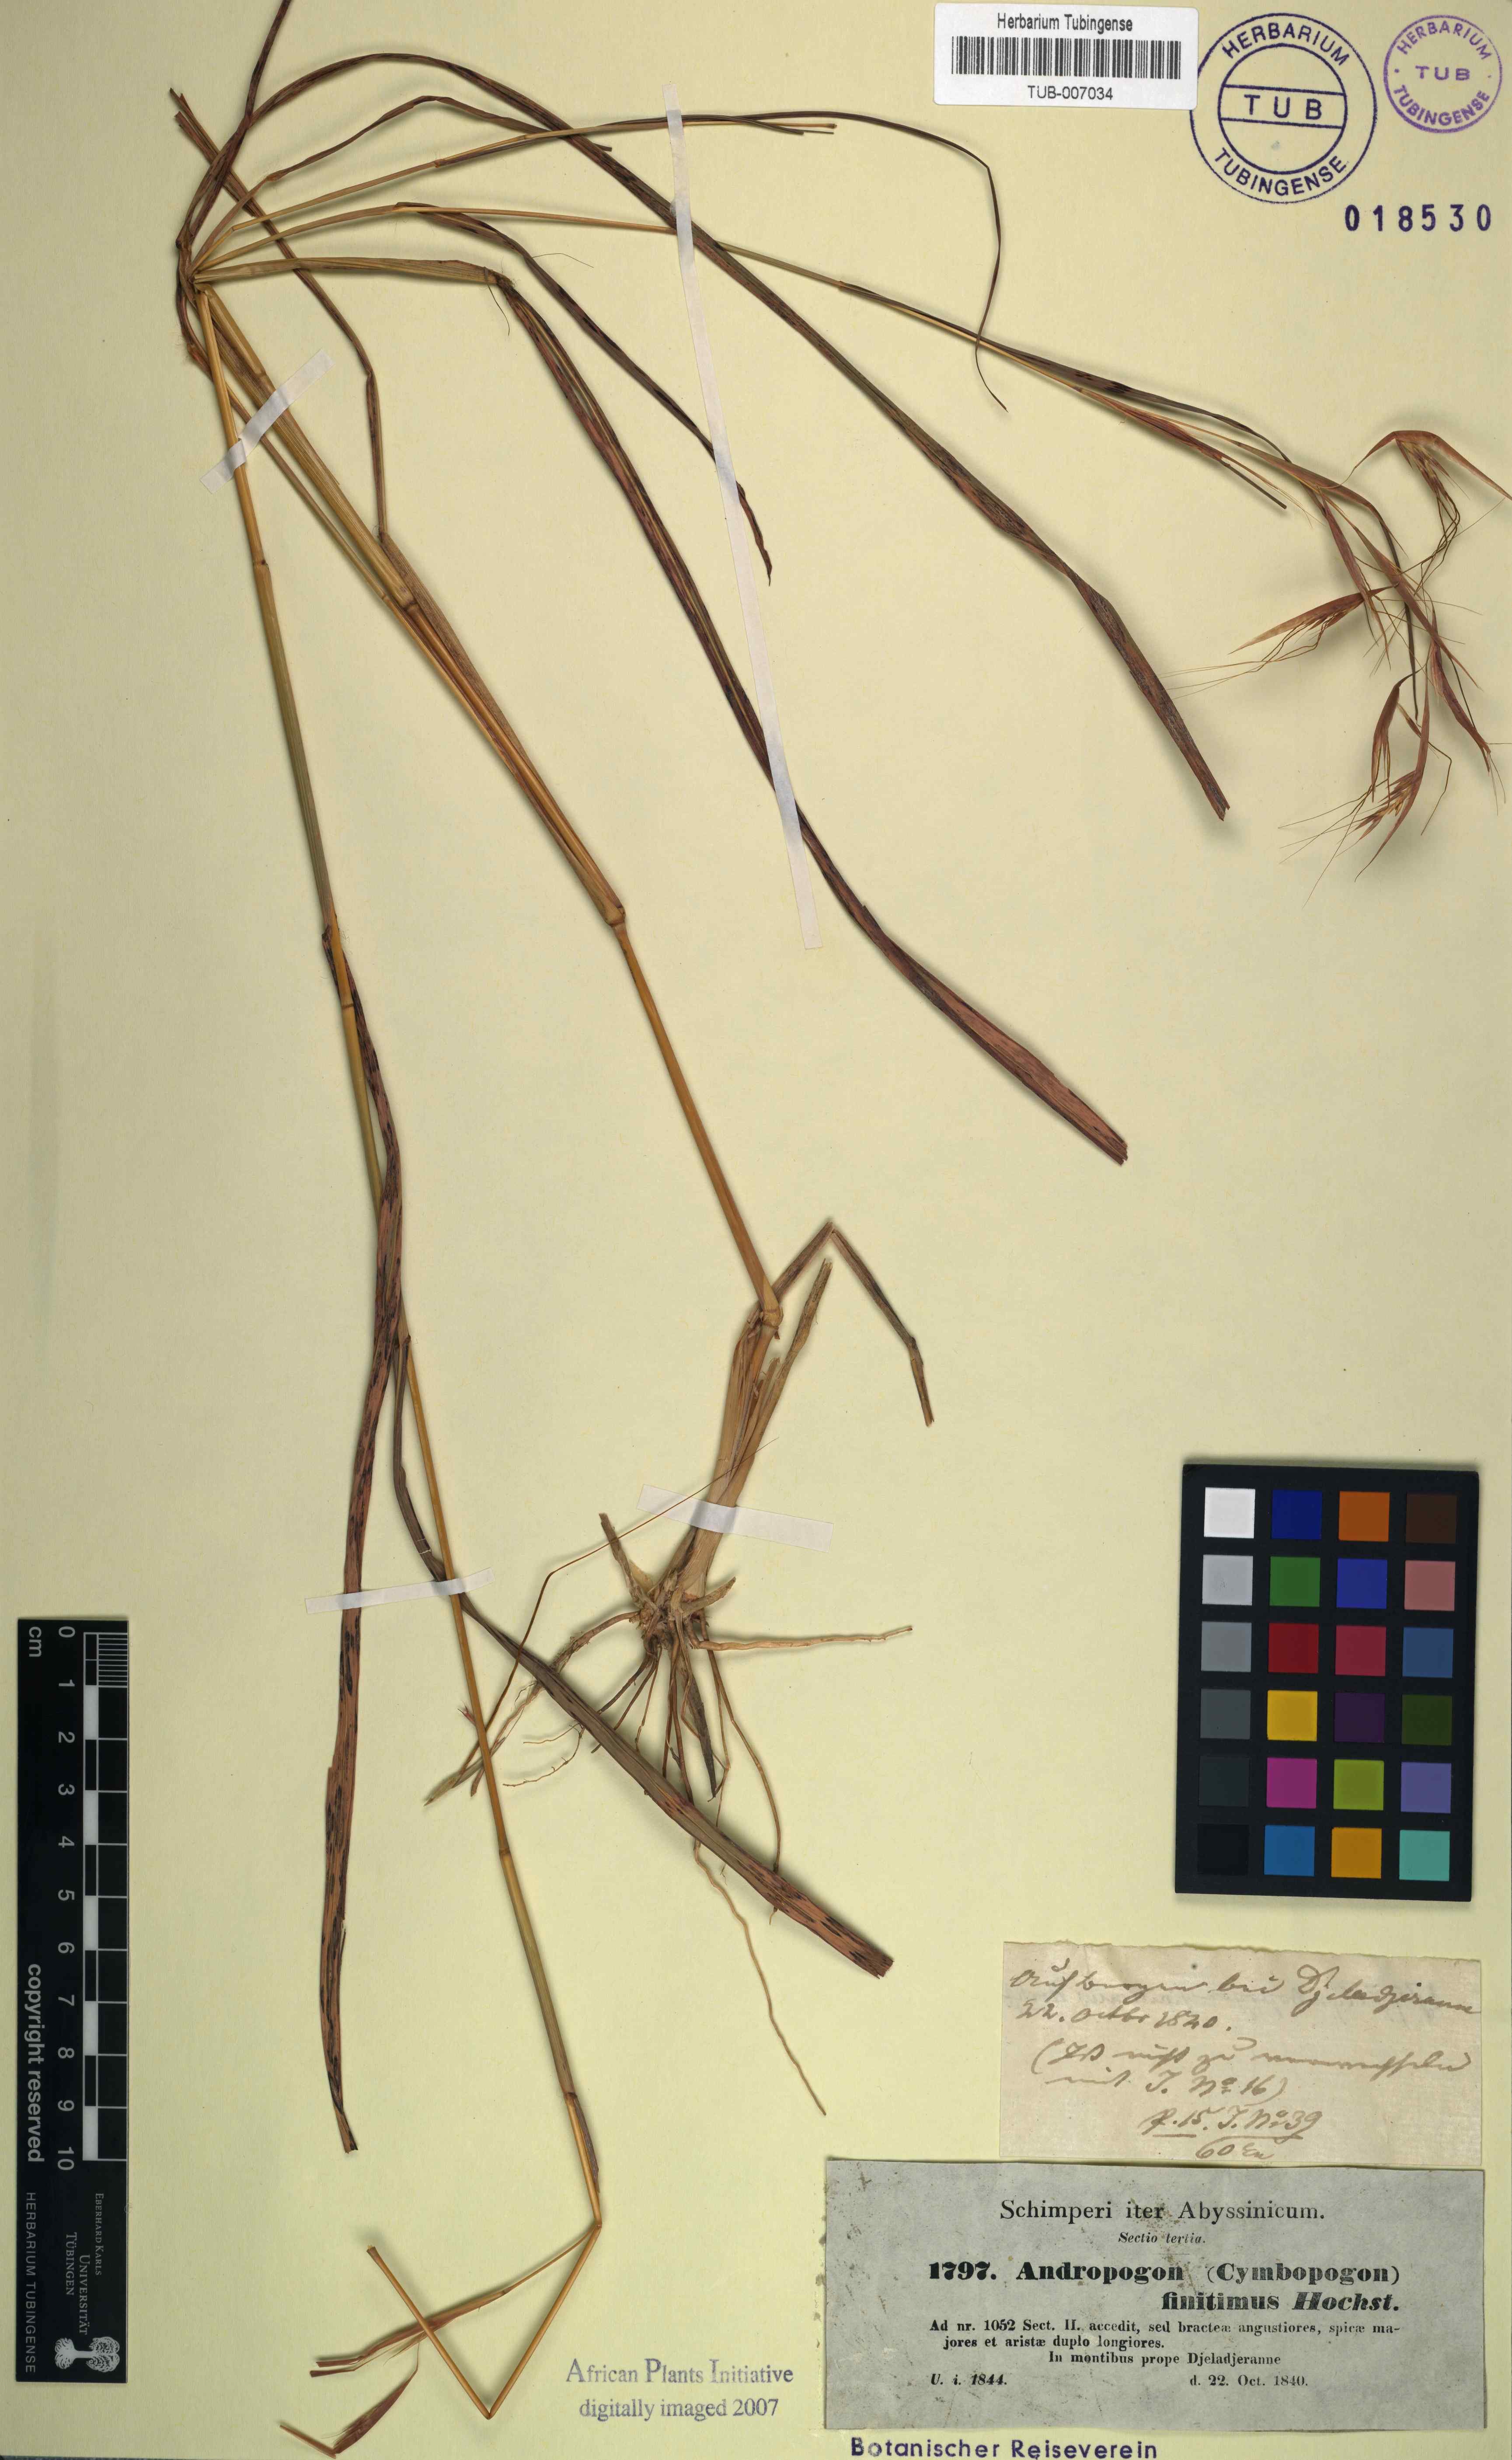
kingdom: Plantae
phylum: Tracheophyta
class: Liliopsida
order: Poales
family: Poaceae
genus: Hyparrhenia
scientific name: Hyparrhenia finitima
